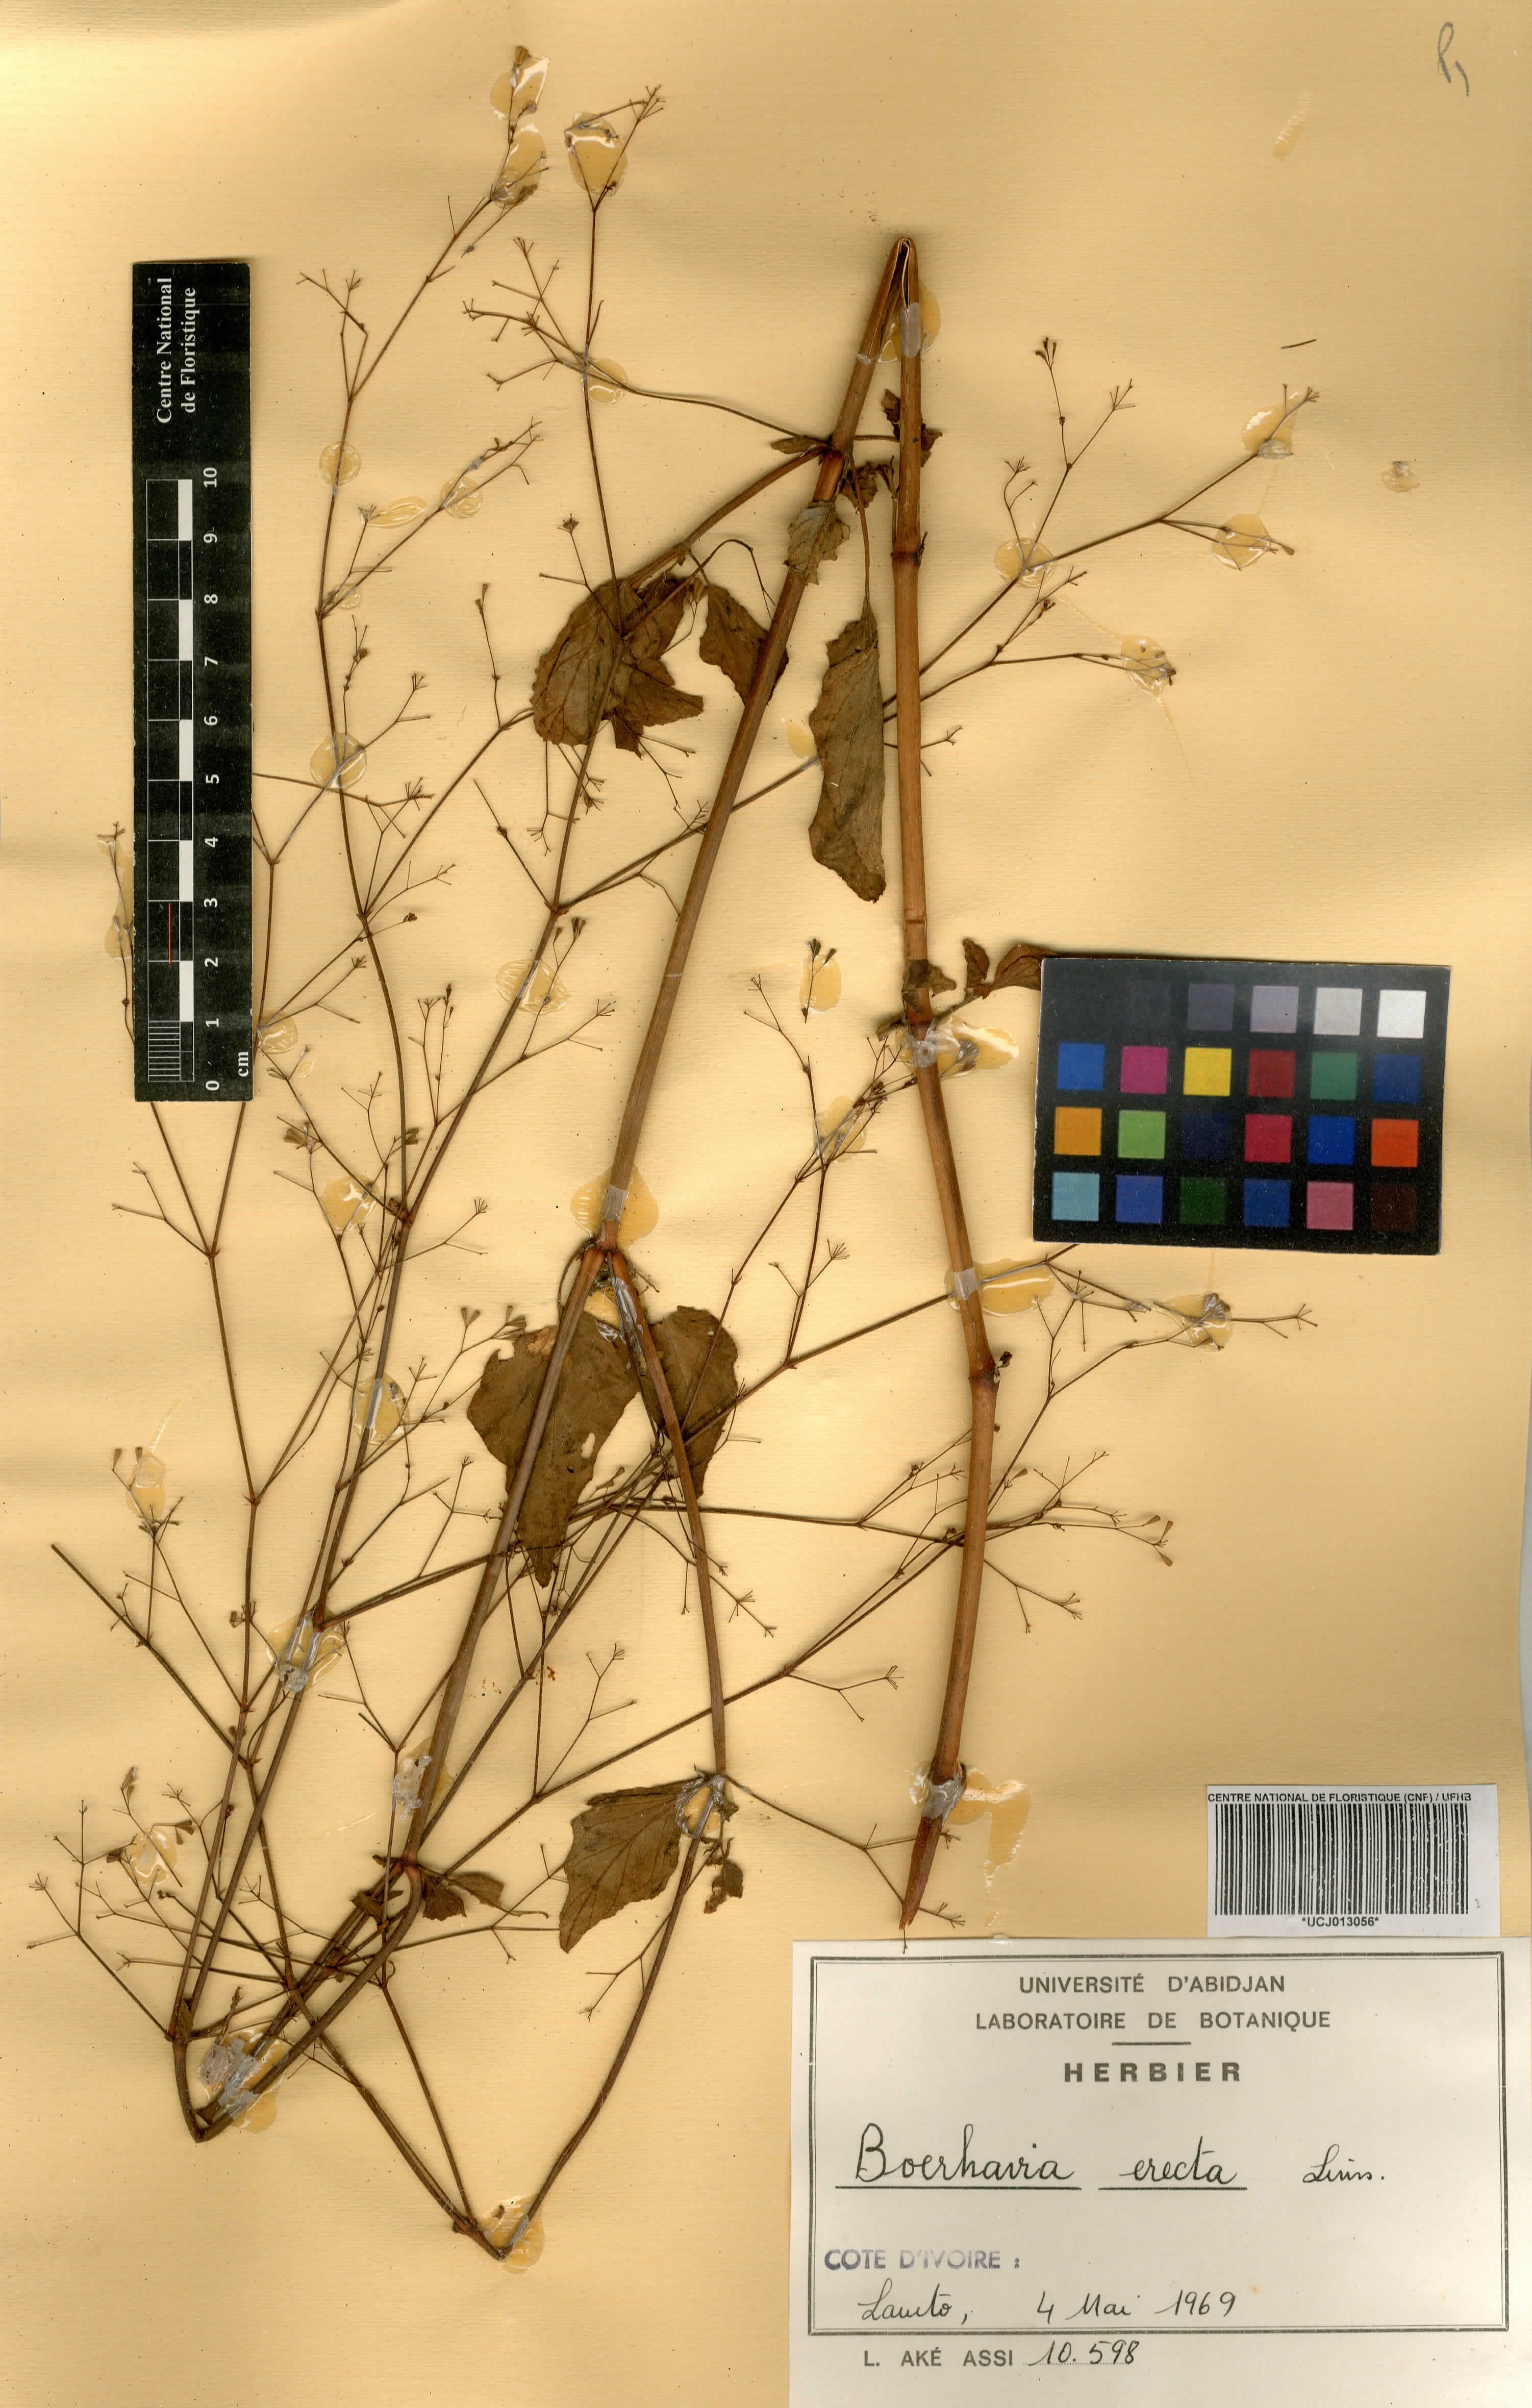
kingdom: Plantae
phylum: Tracheophyta
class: Magnoliopsida
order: Caryophyllales
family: Nyctaginaceae
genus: Boerhavia
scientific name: Boerhavia erecta
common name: Erect spiderling
